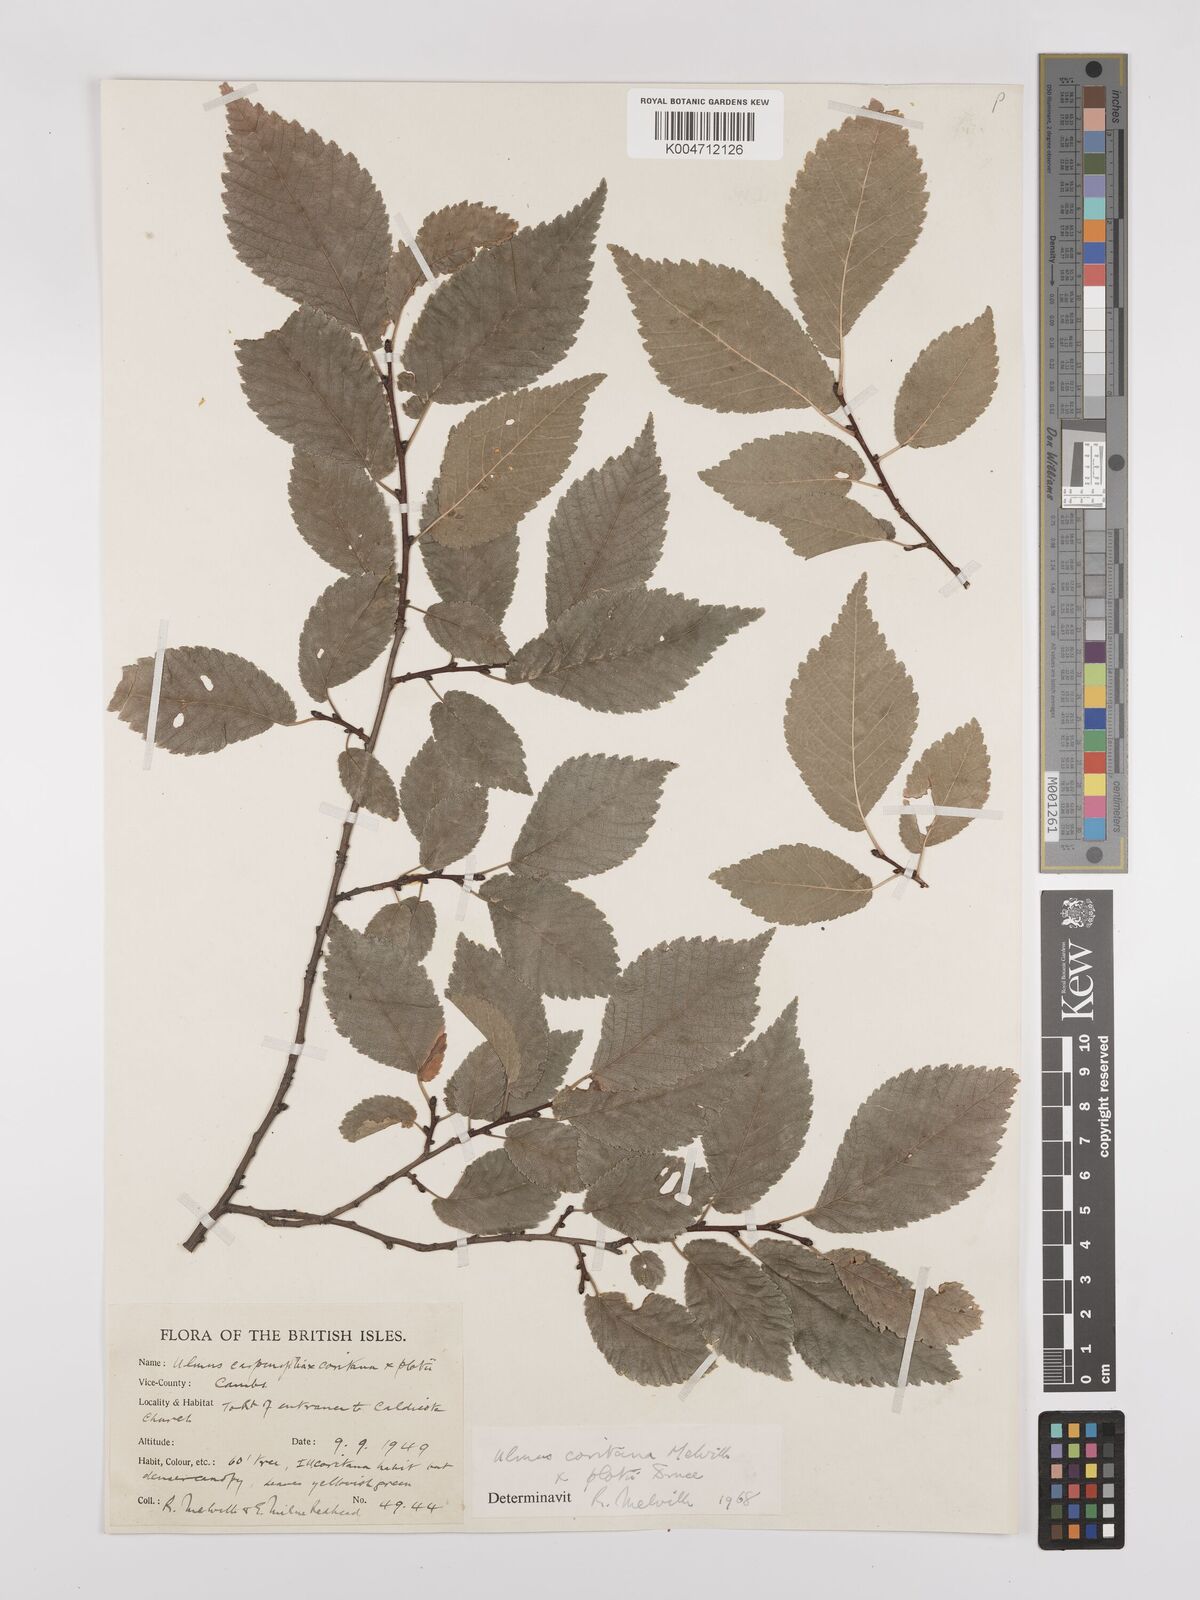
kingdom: Plantae
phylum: Tracheophyta
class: Magnoliopsida
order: Rosales
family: Ulmaceae
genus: Ulmus
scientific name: Ulmus minor
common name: Small-leaved elm
